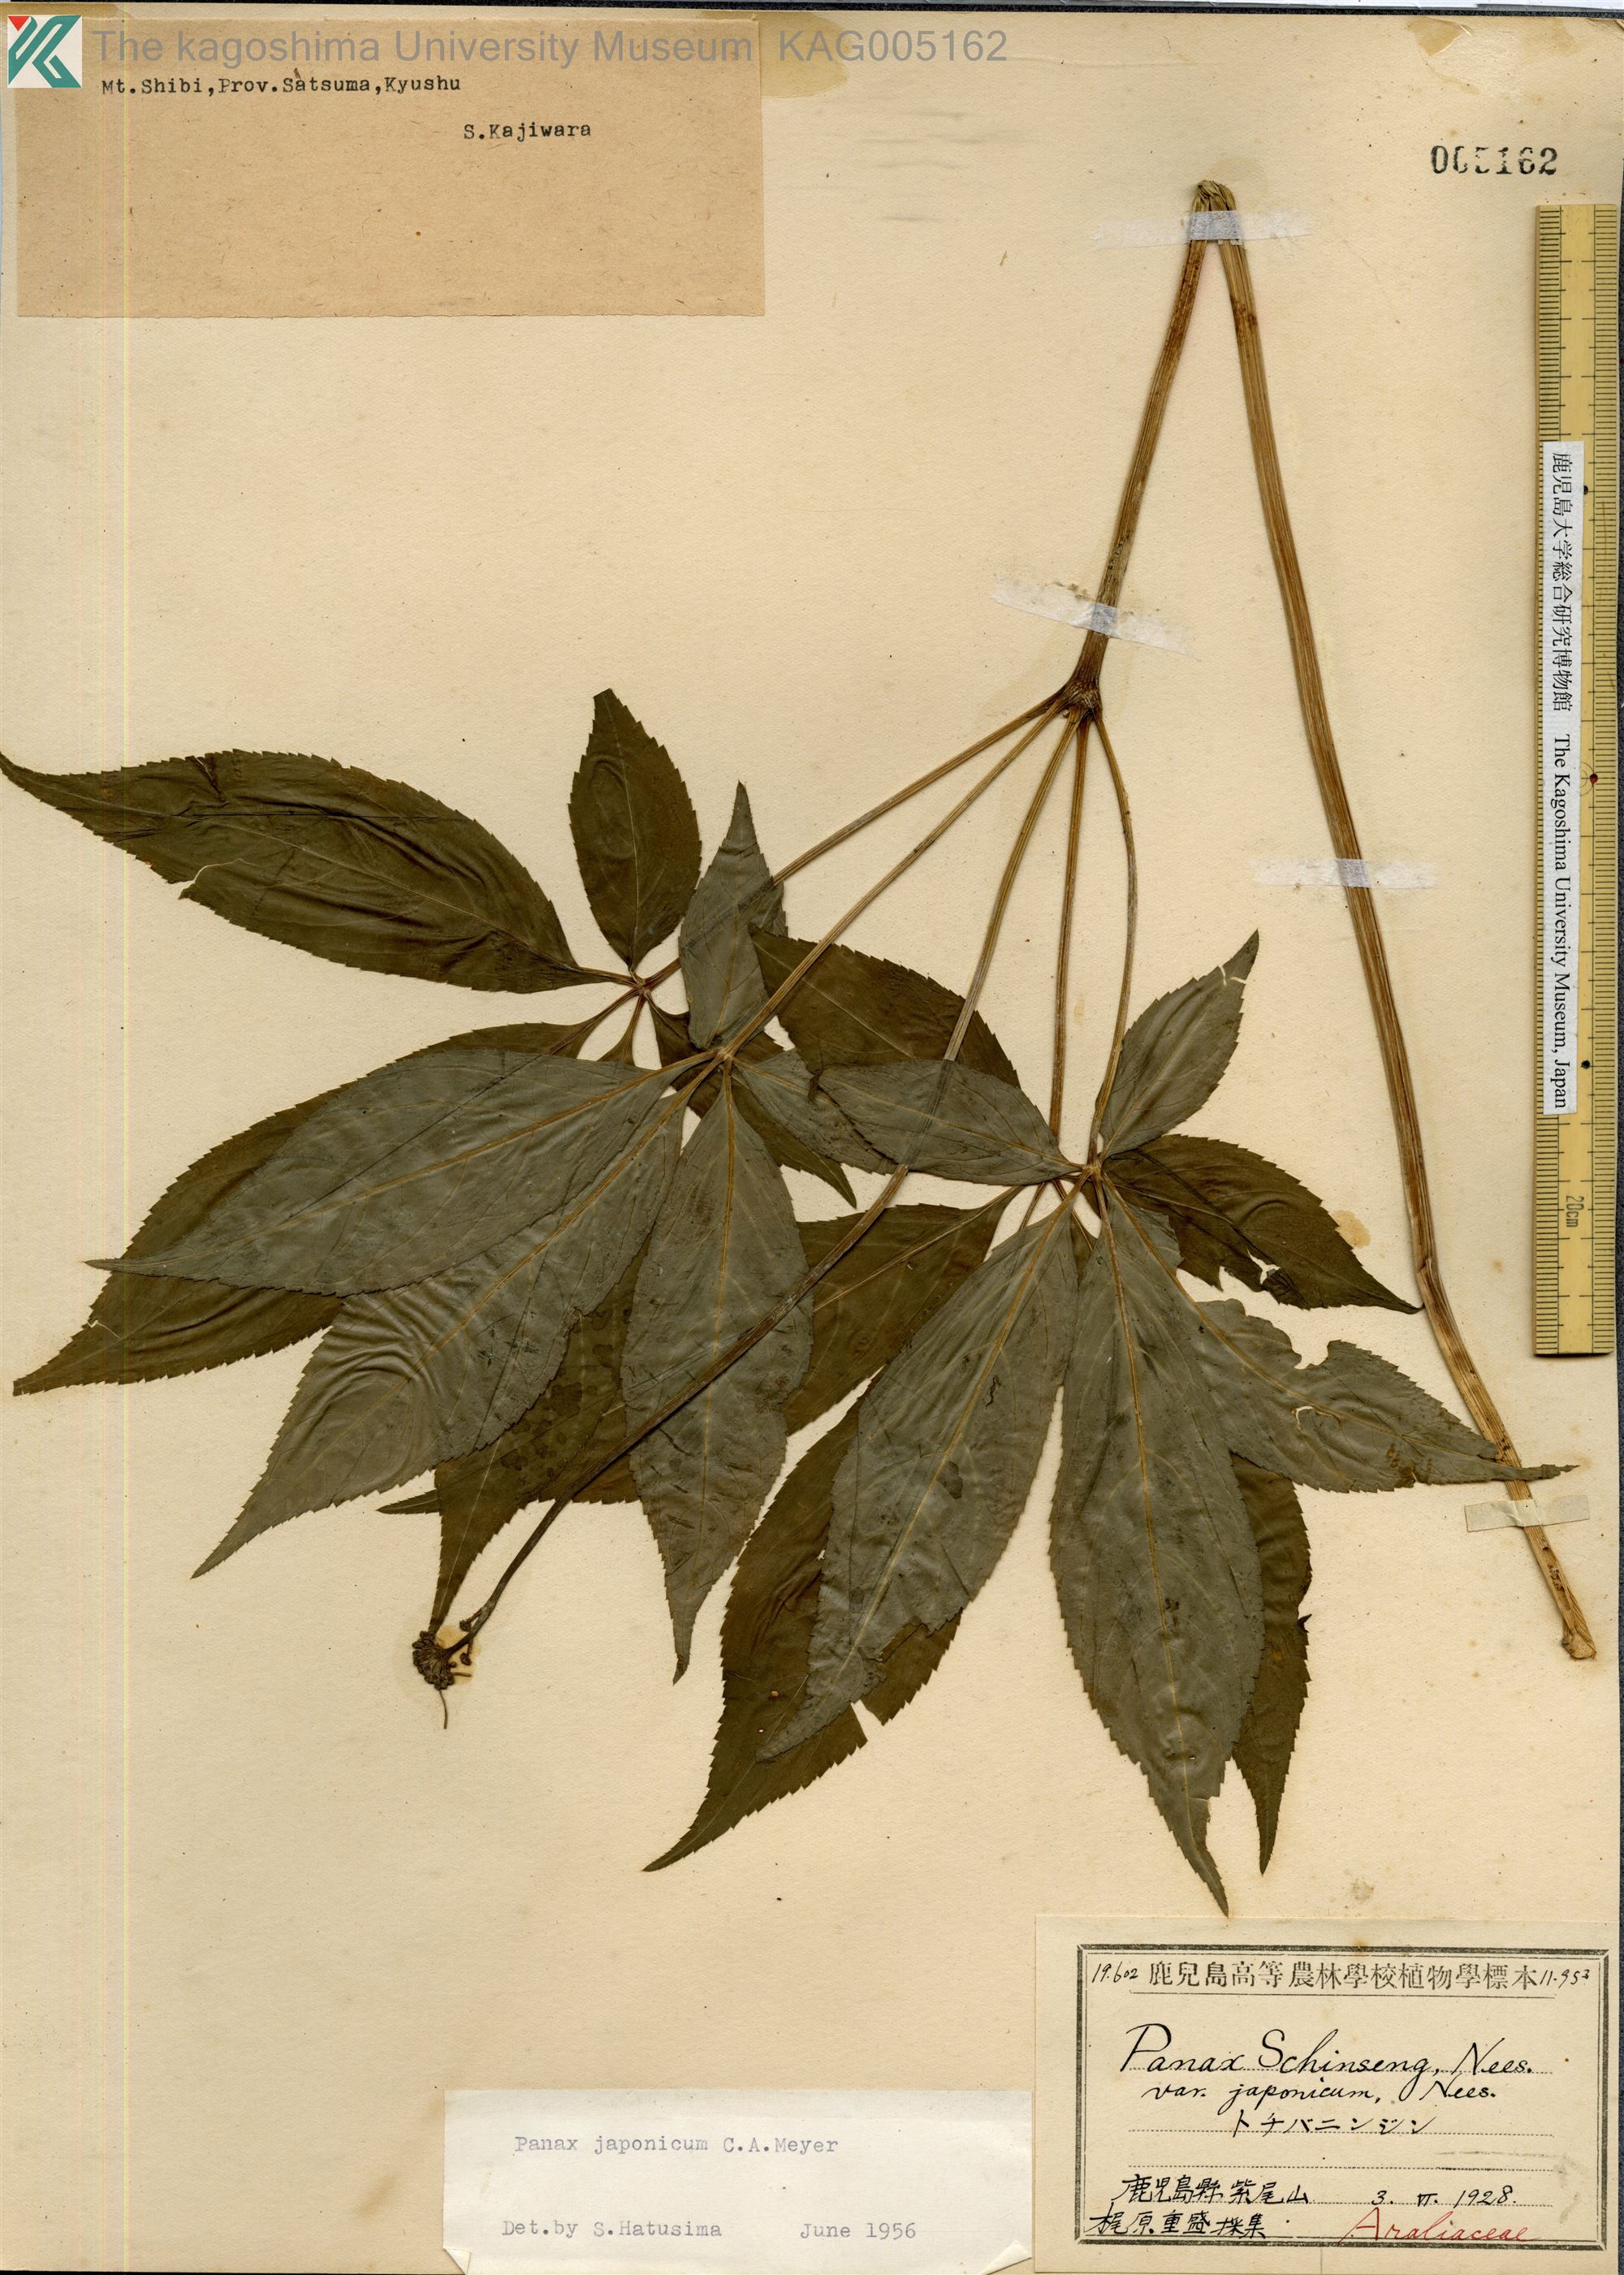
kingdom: Plantae
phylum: Tracheophyta
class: Magnoliopsida
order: Apiales
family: Araliaceae
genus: Panax
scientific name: Panax japonicus
